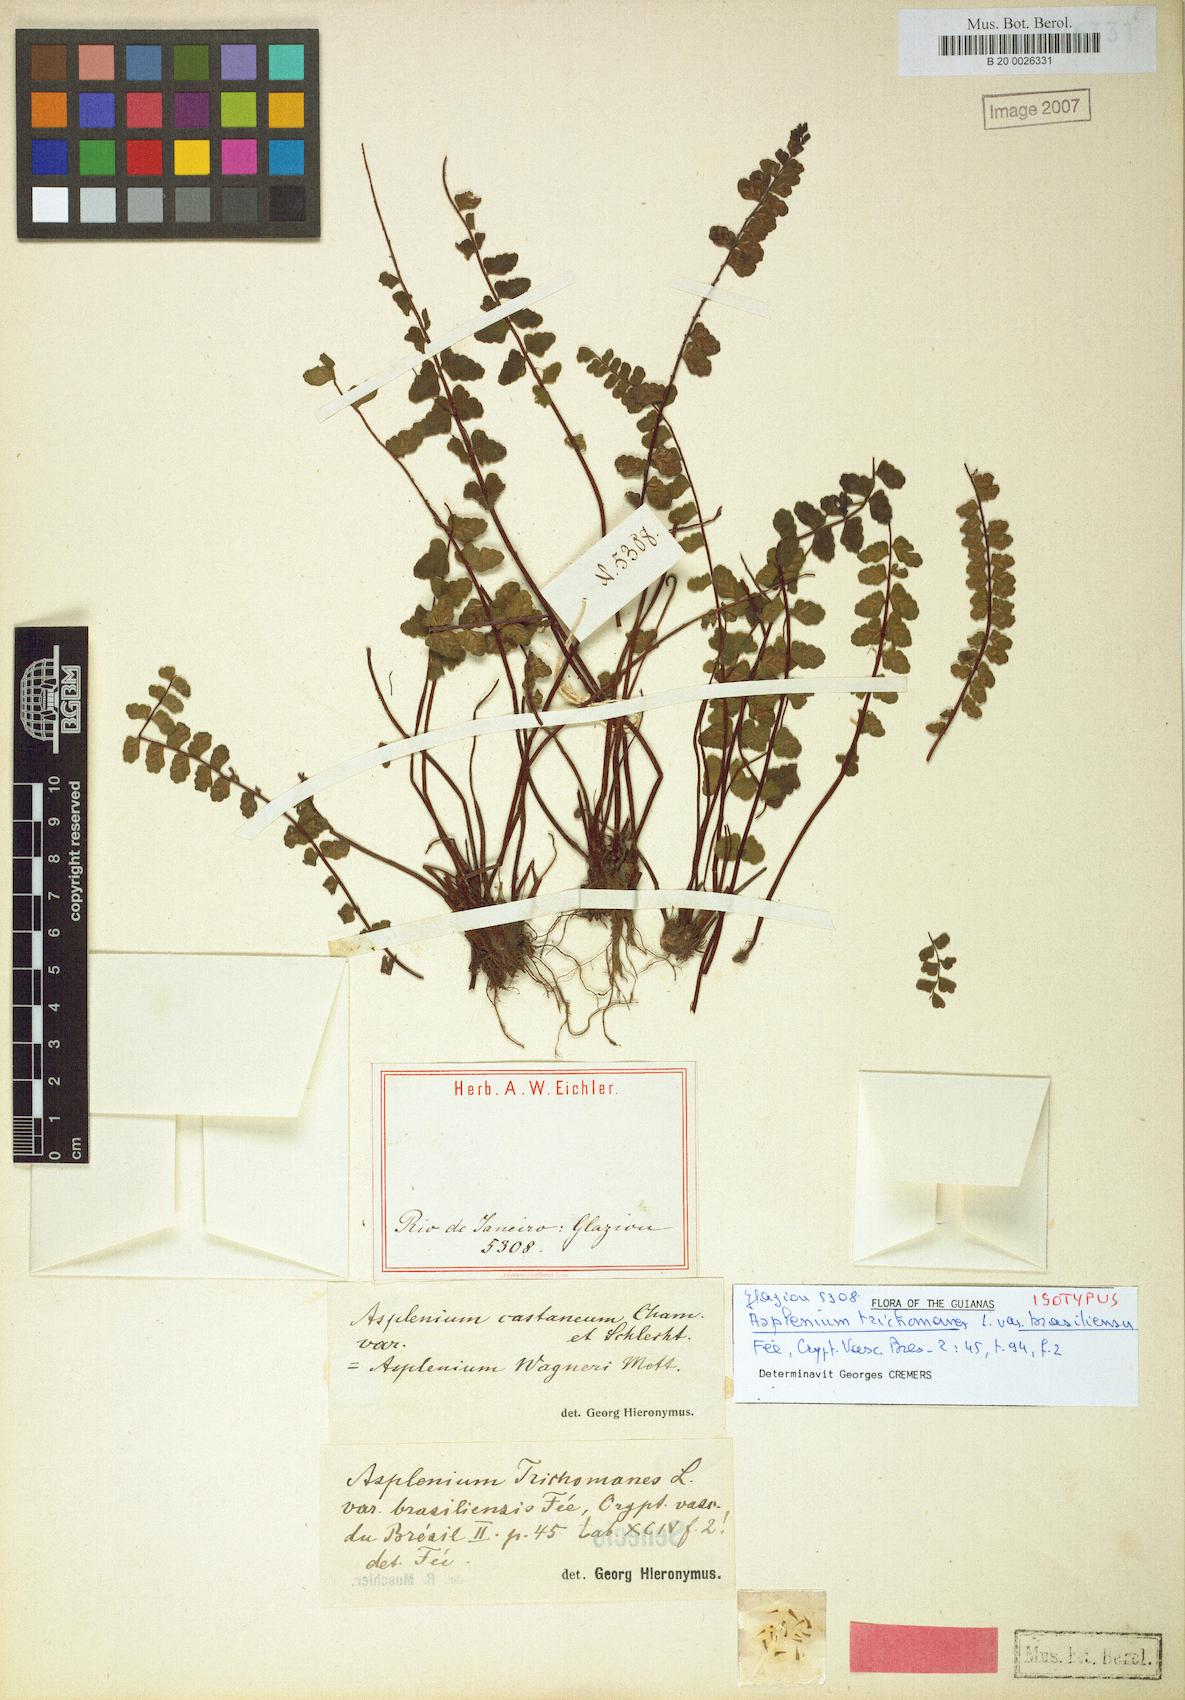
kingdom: Plantae
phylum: Tracheophyta
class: Polypodiopsida
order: Polypodiales
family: Aspleniaceae
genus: Asplenium
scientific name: Asplenium monanthes
